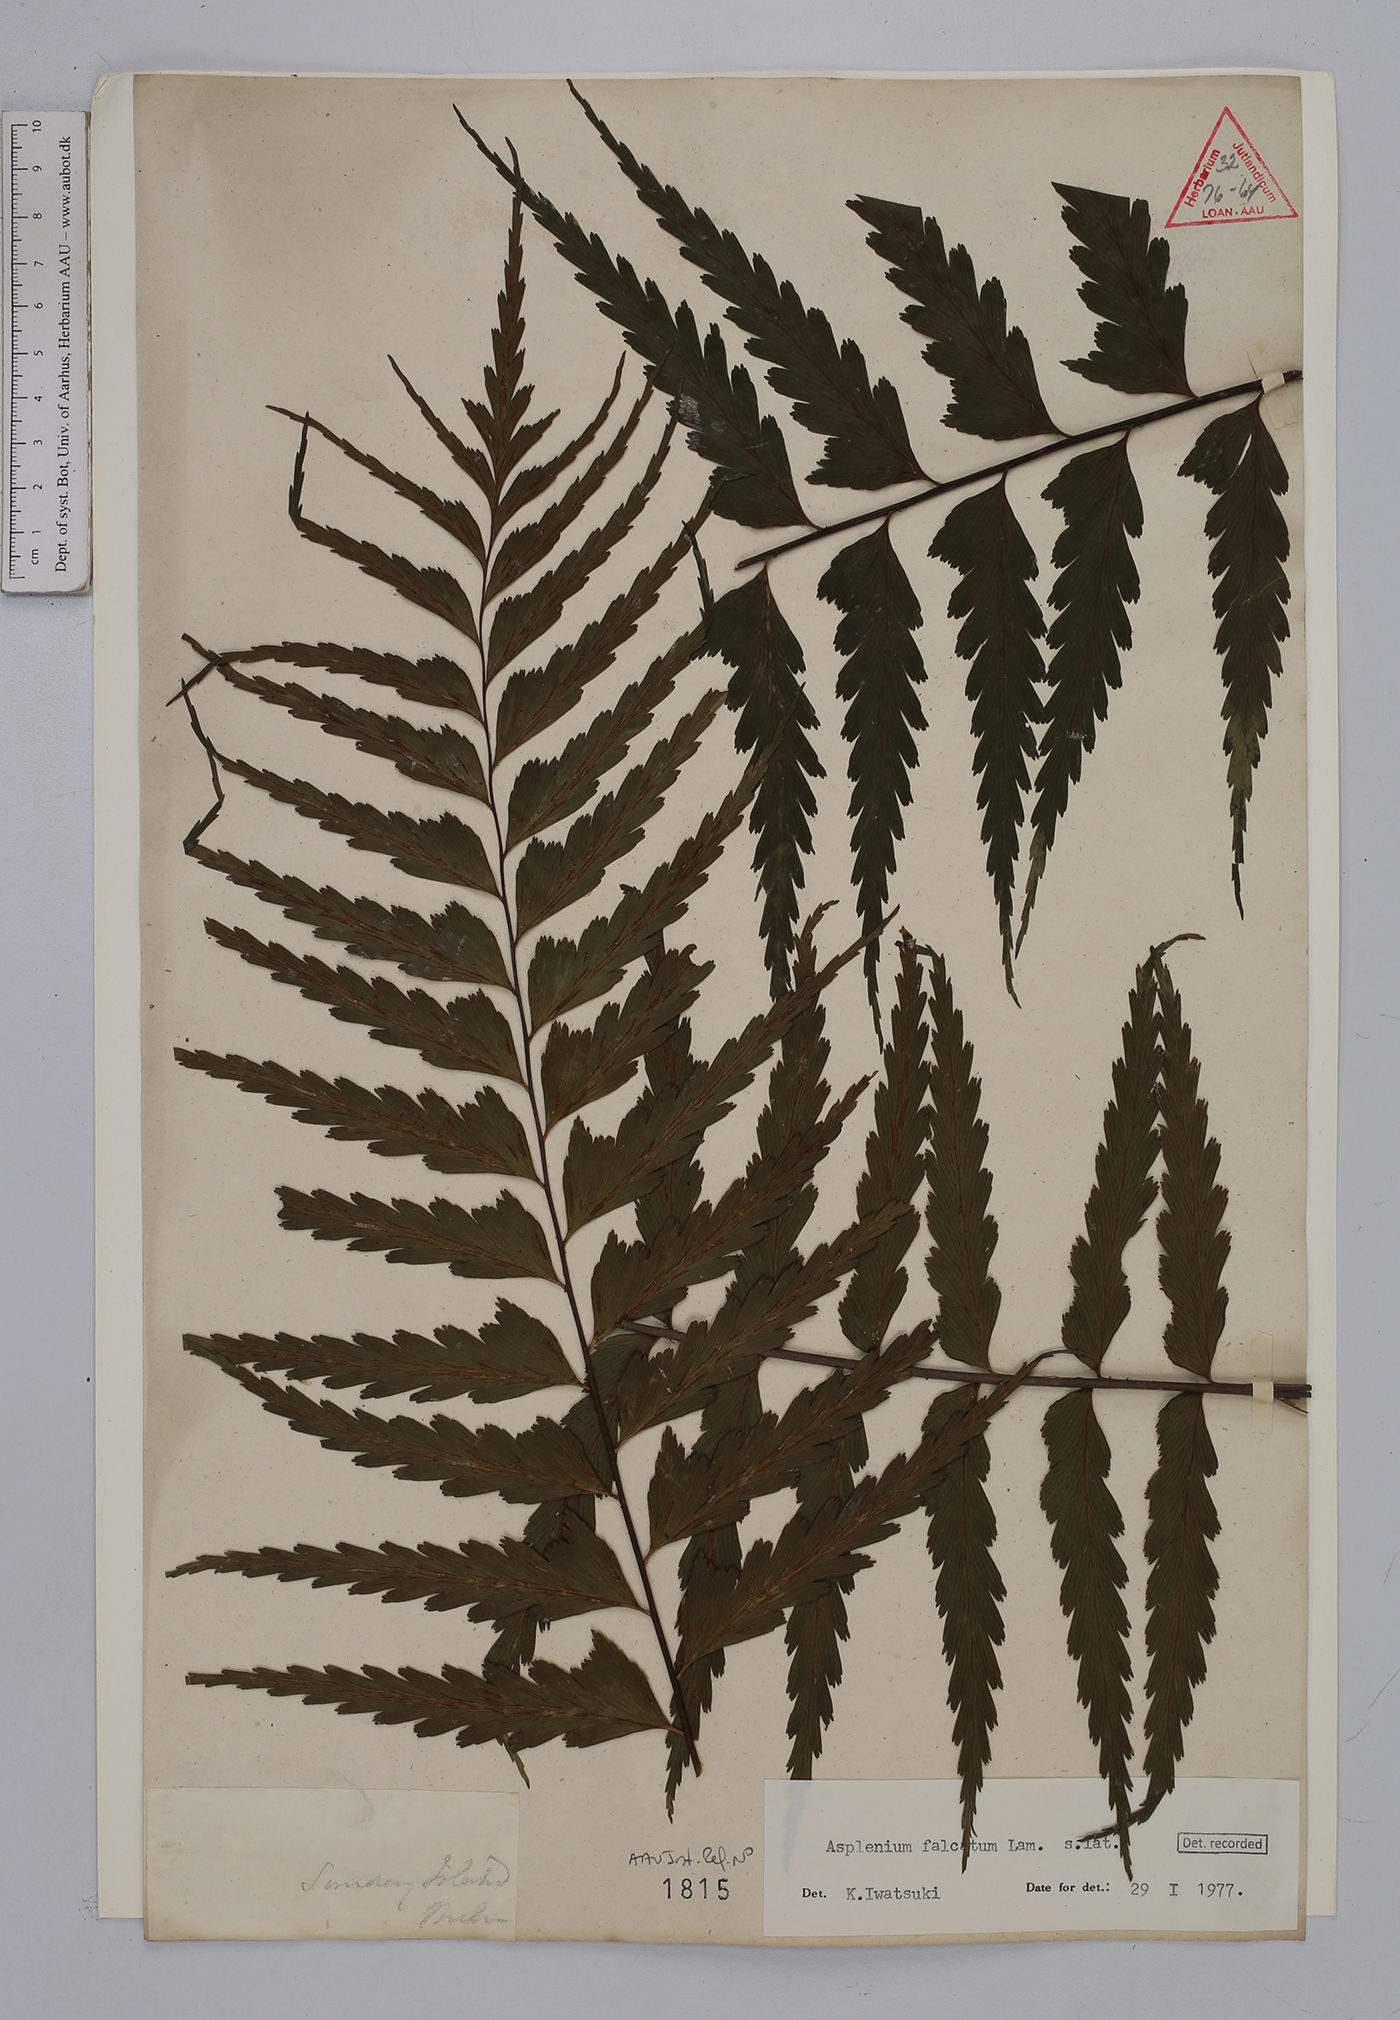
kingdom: Plantae
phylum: Tracheophyta
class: Polypodiopsida
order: Polypodiales
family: Aspleniaceae
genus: Asplenium
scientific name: Asplenium falcatum
